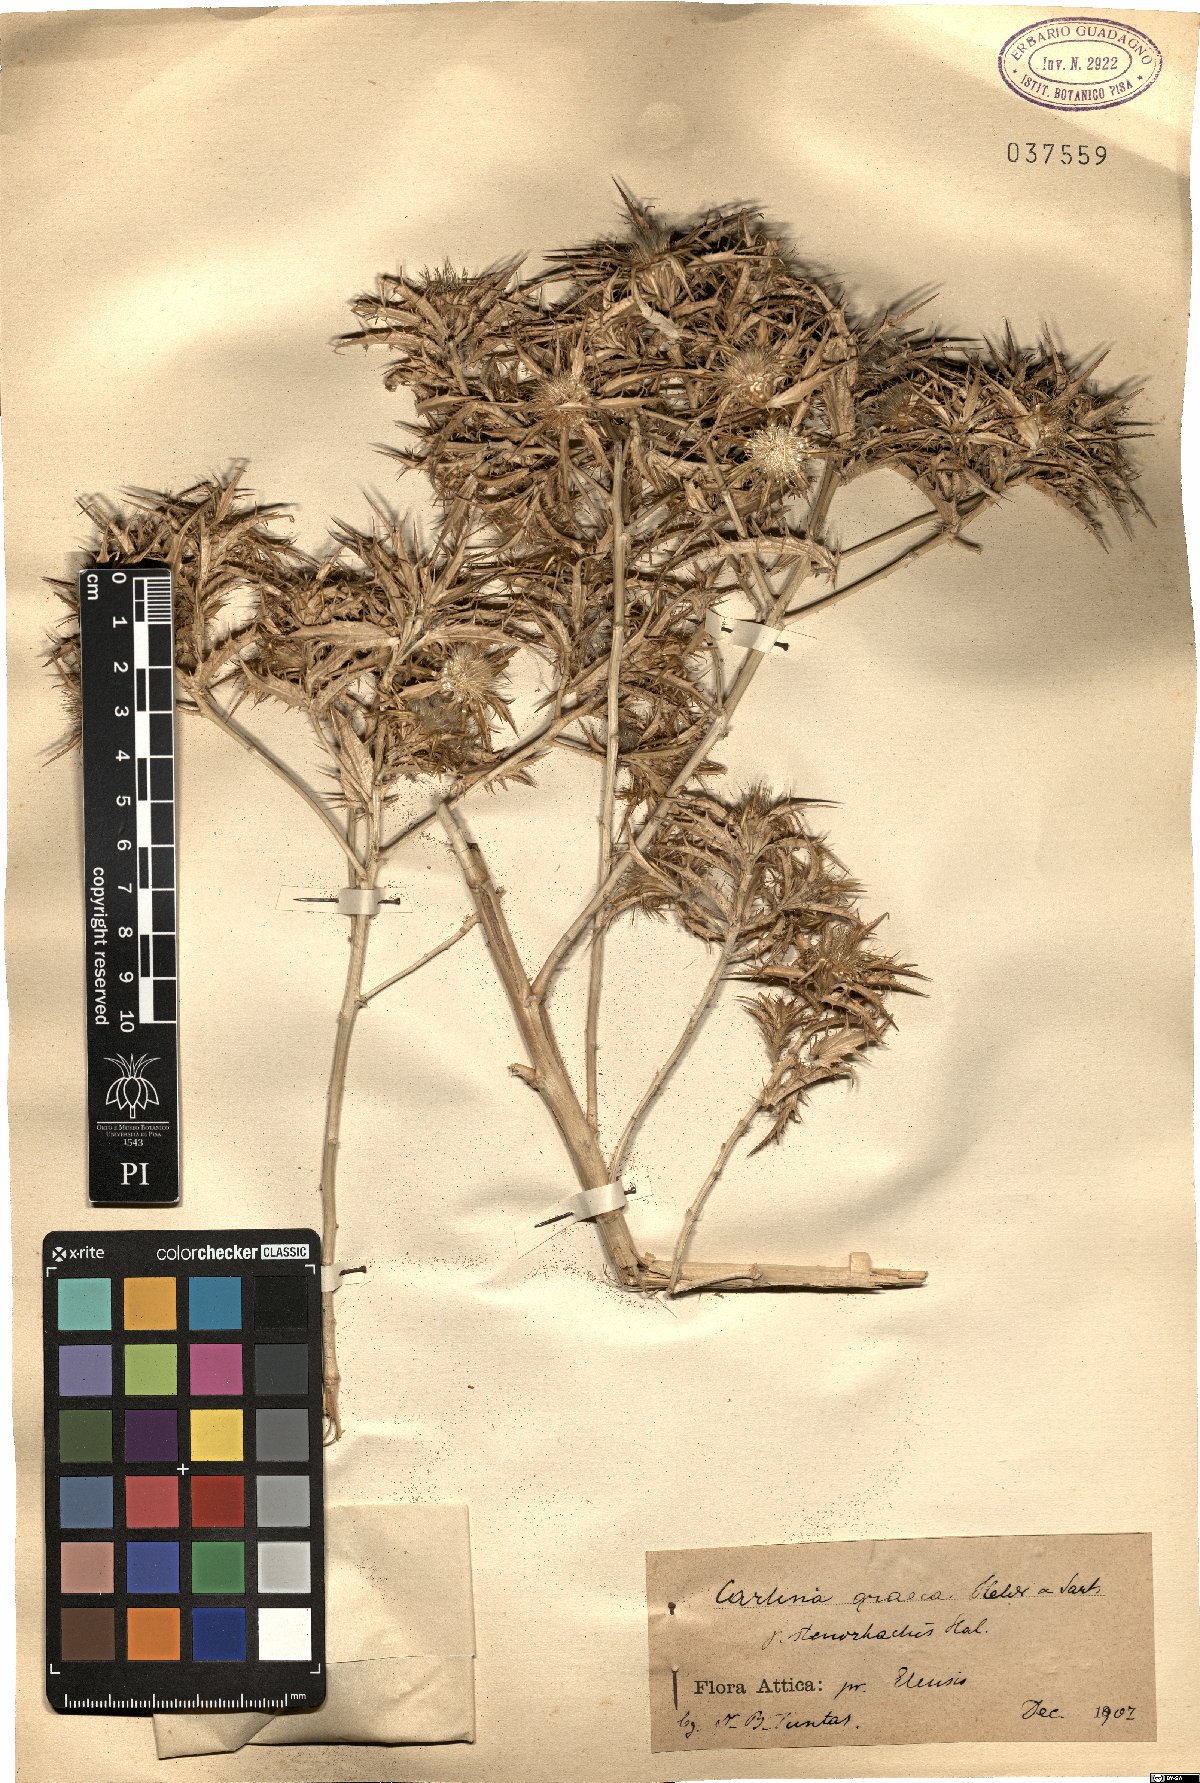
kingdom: Plantae
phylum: Tracheophyta
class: Magnoliopsida
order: Asterales
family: Asteraceae
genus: Carlina
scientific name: Carlina graeca
